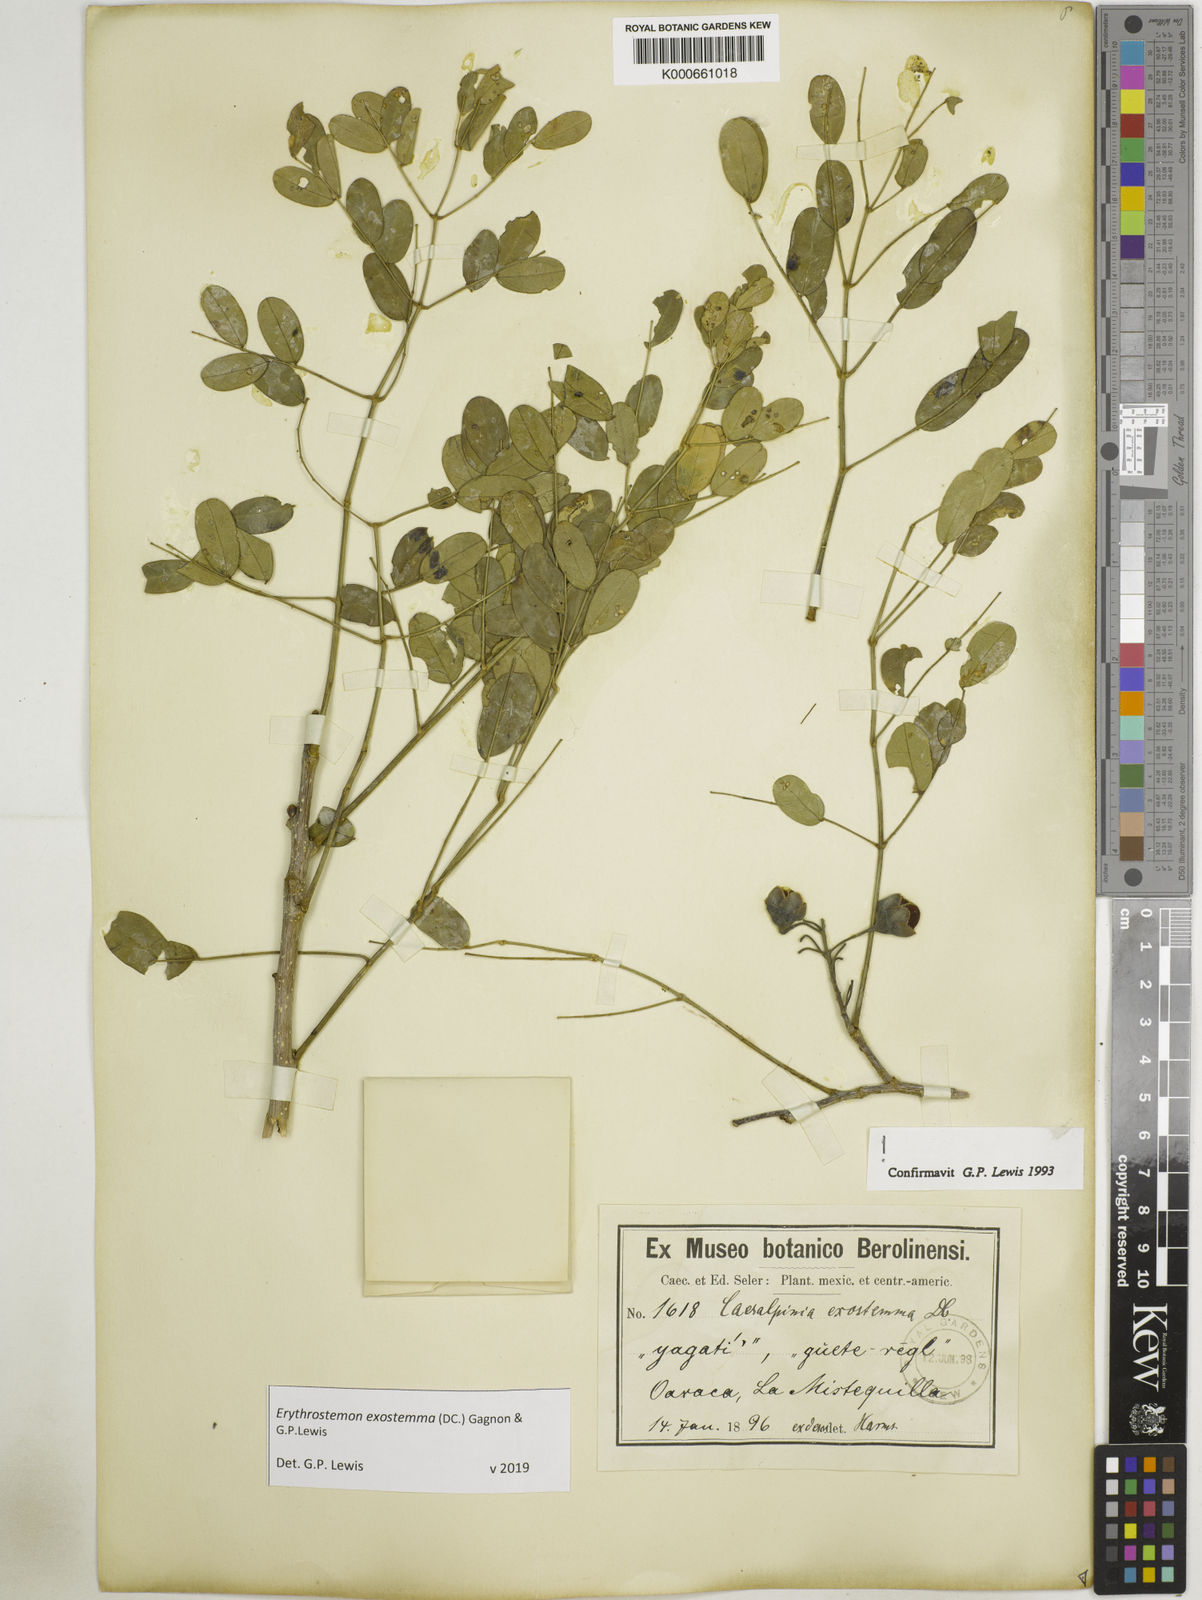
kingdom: Plantae
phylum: Tracheophyta
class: Magnoliopsida
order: Fabales
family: Fabaceae
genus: Erythrostemon
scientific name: Erythrostemon exostemma
